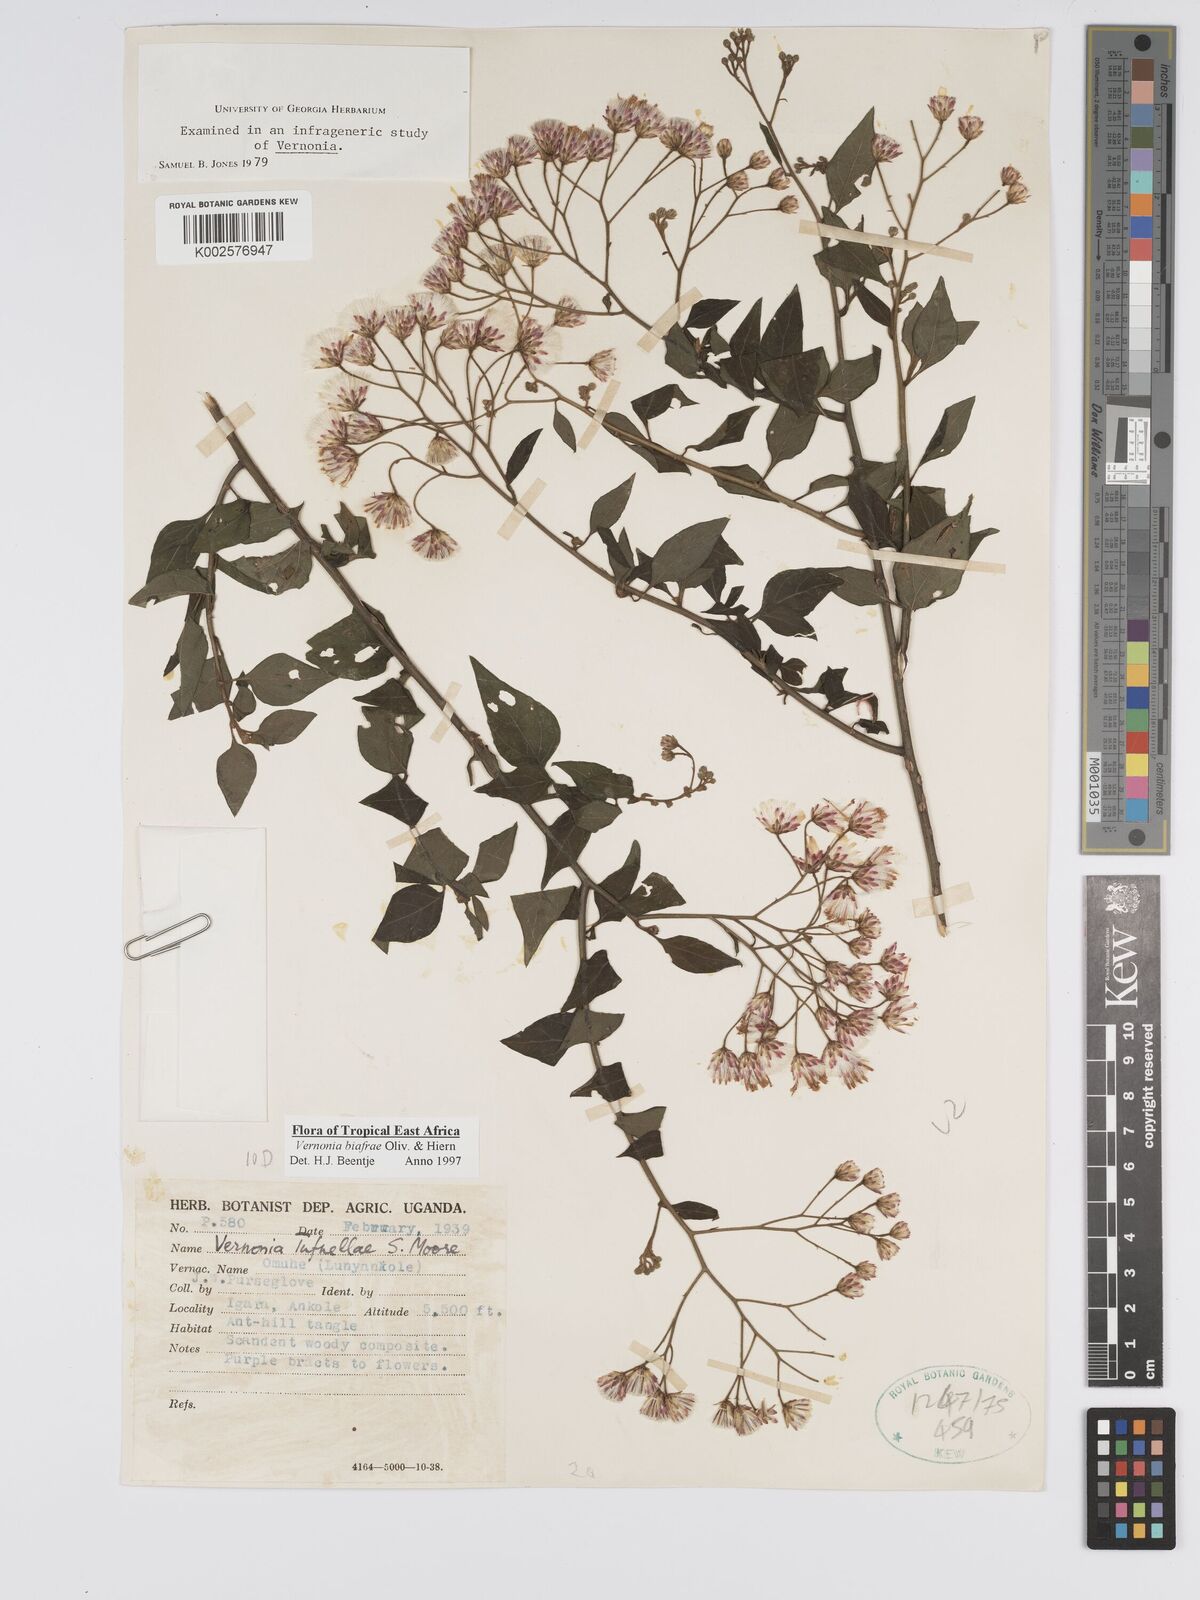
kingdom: Plantae
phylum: Tracheophyta
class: Magnoliopsida
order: Asterales
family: Asteraceae
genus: Distephanus
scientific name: Distephanus biafrae
